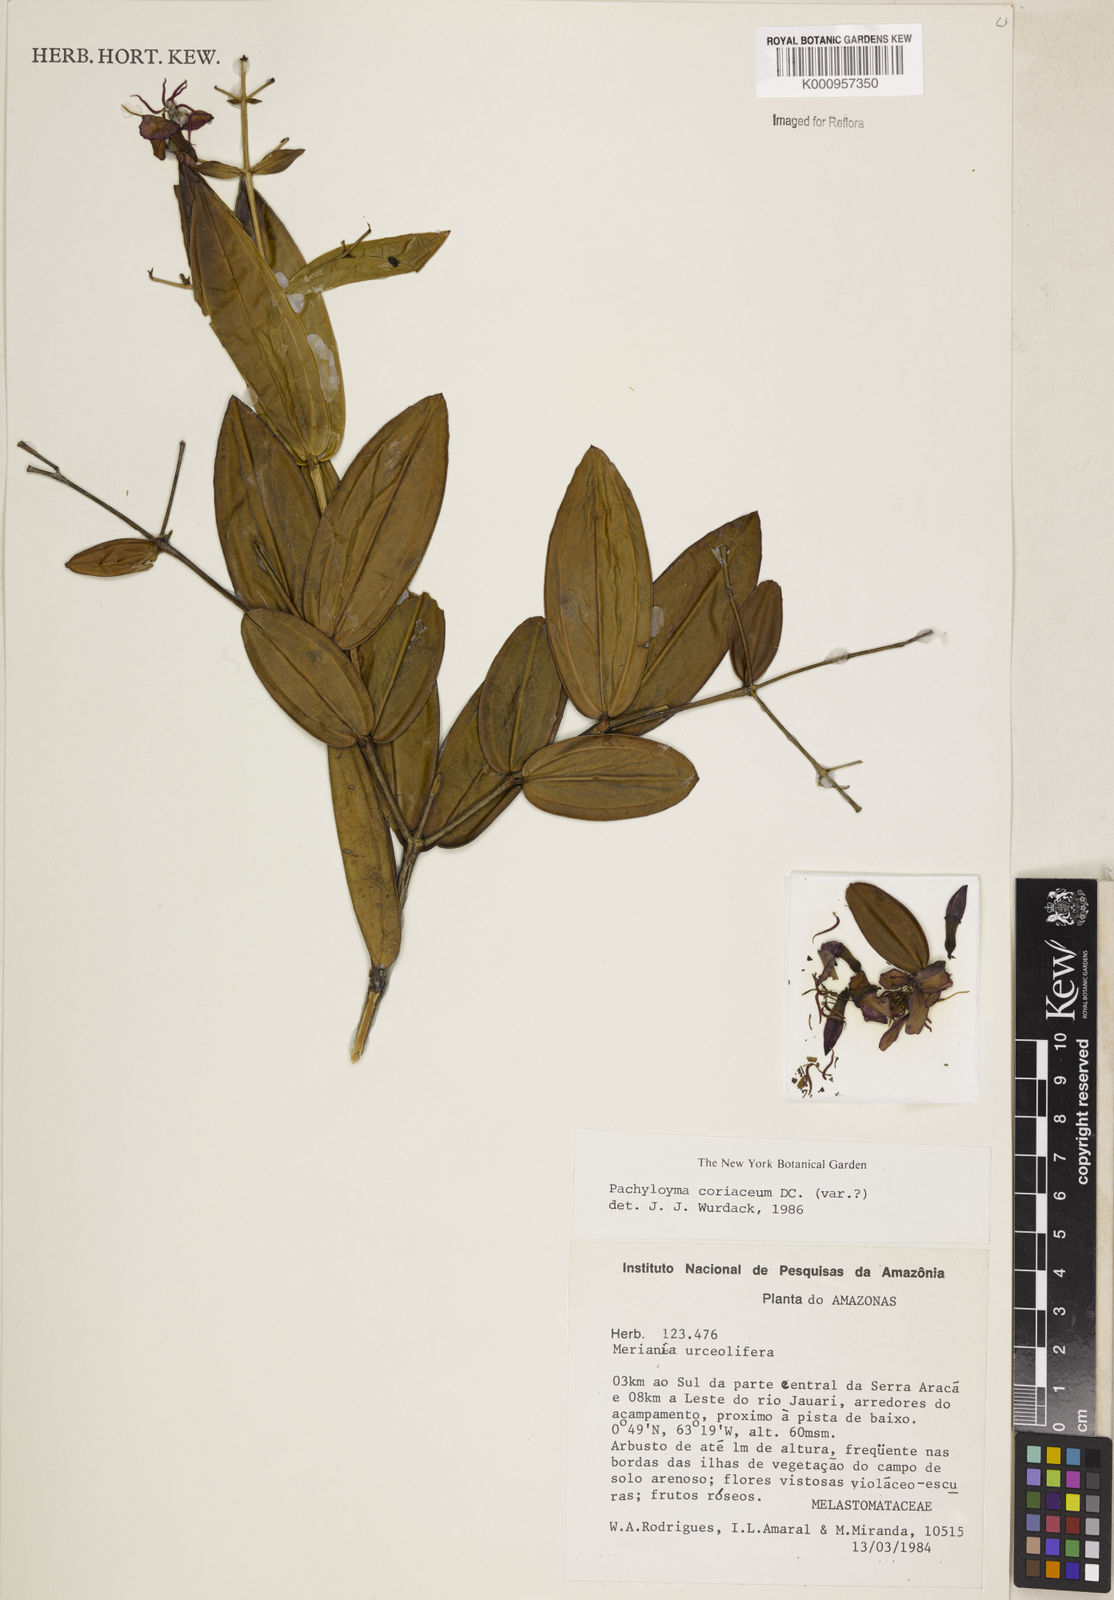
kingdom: Plantae
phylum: Tracheophyta
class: Magnoliopsida
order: Myrtales
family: Melastomataceae
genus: Pachyloma
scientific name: Pachyloma coriaceum
